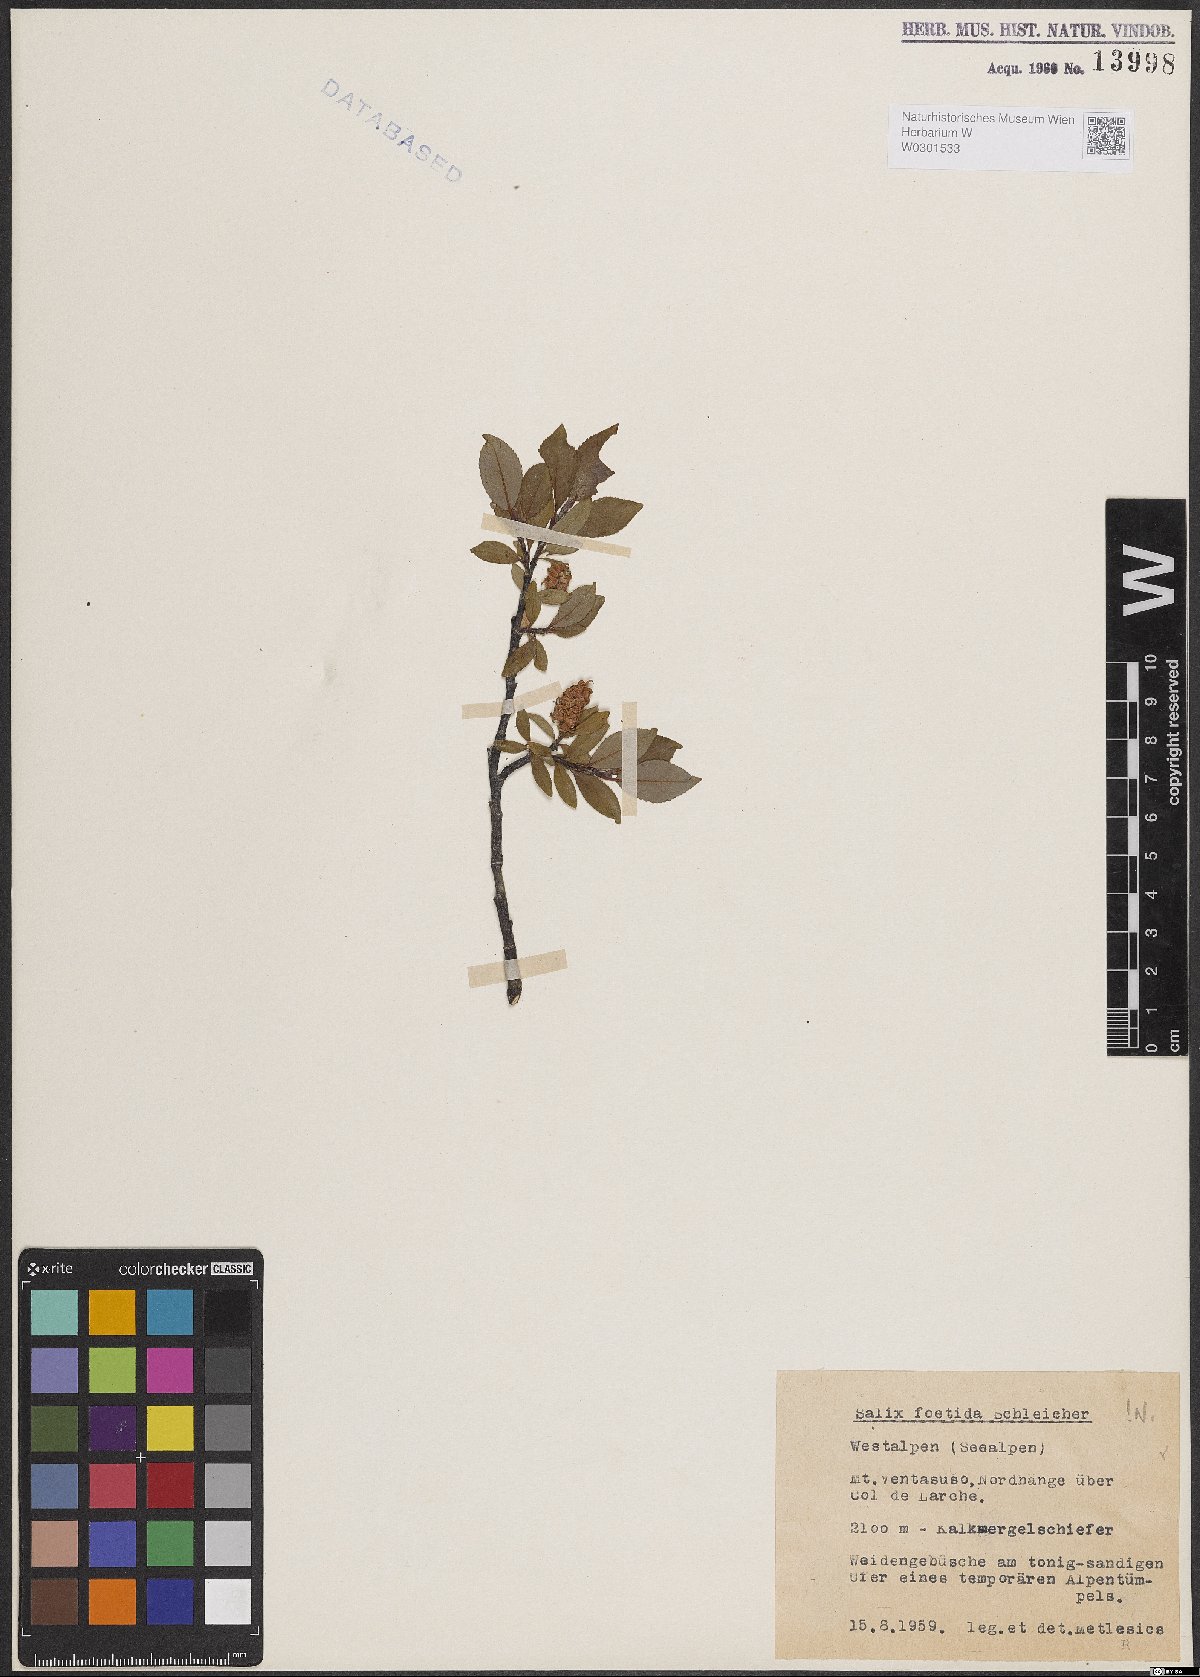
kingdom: Plantae
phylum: Tracheophyta
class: Magnoliopsida
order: Malpighiales
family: Salicaceae
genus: Salix
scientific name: Salix foetida
